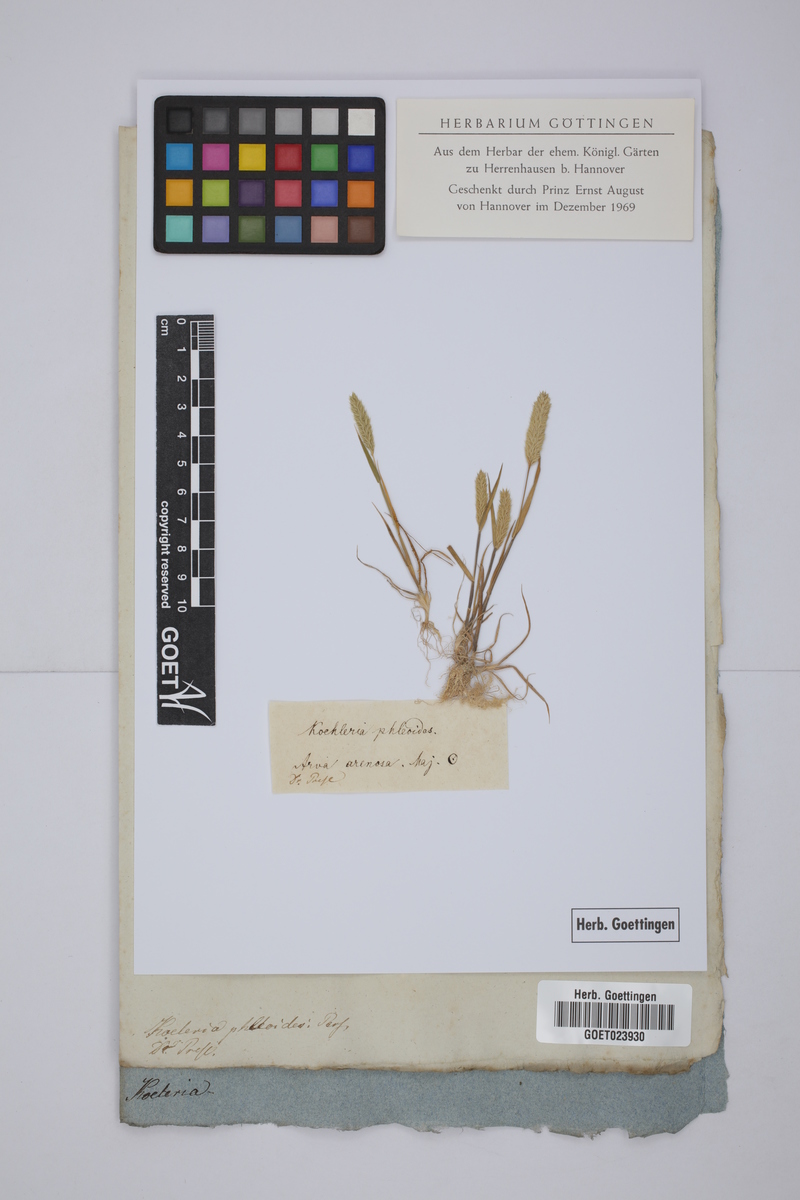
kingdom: Plantae
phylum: Tracheophyta
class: Liliopsida
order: Poales
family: Poaceae
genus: Rostraria
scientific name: Rostraria cristata
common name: Mediterranean hair-grass
